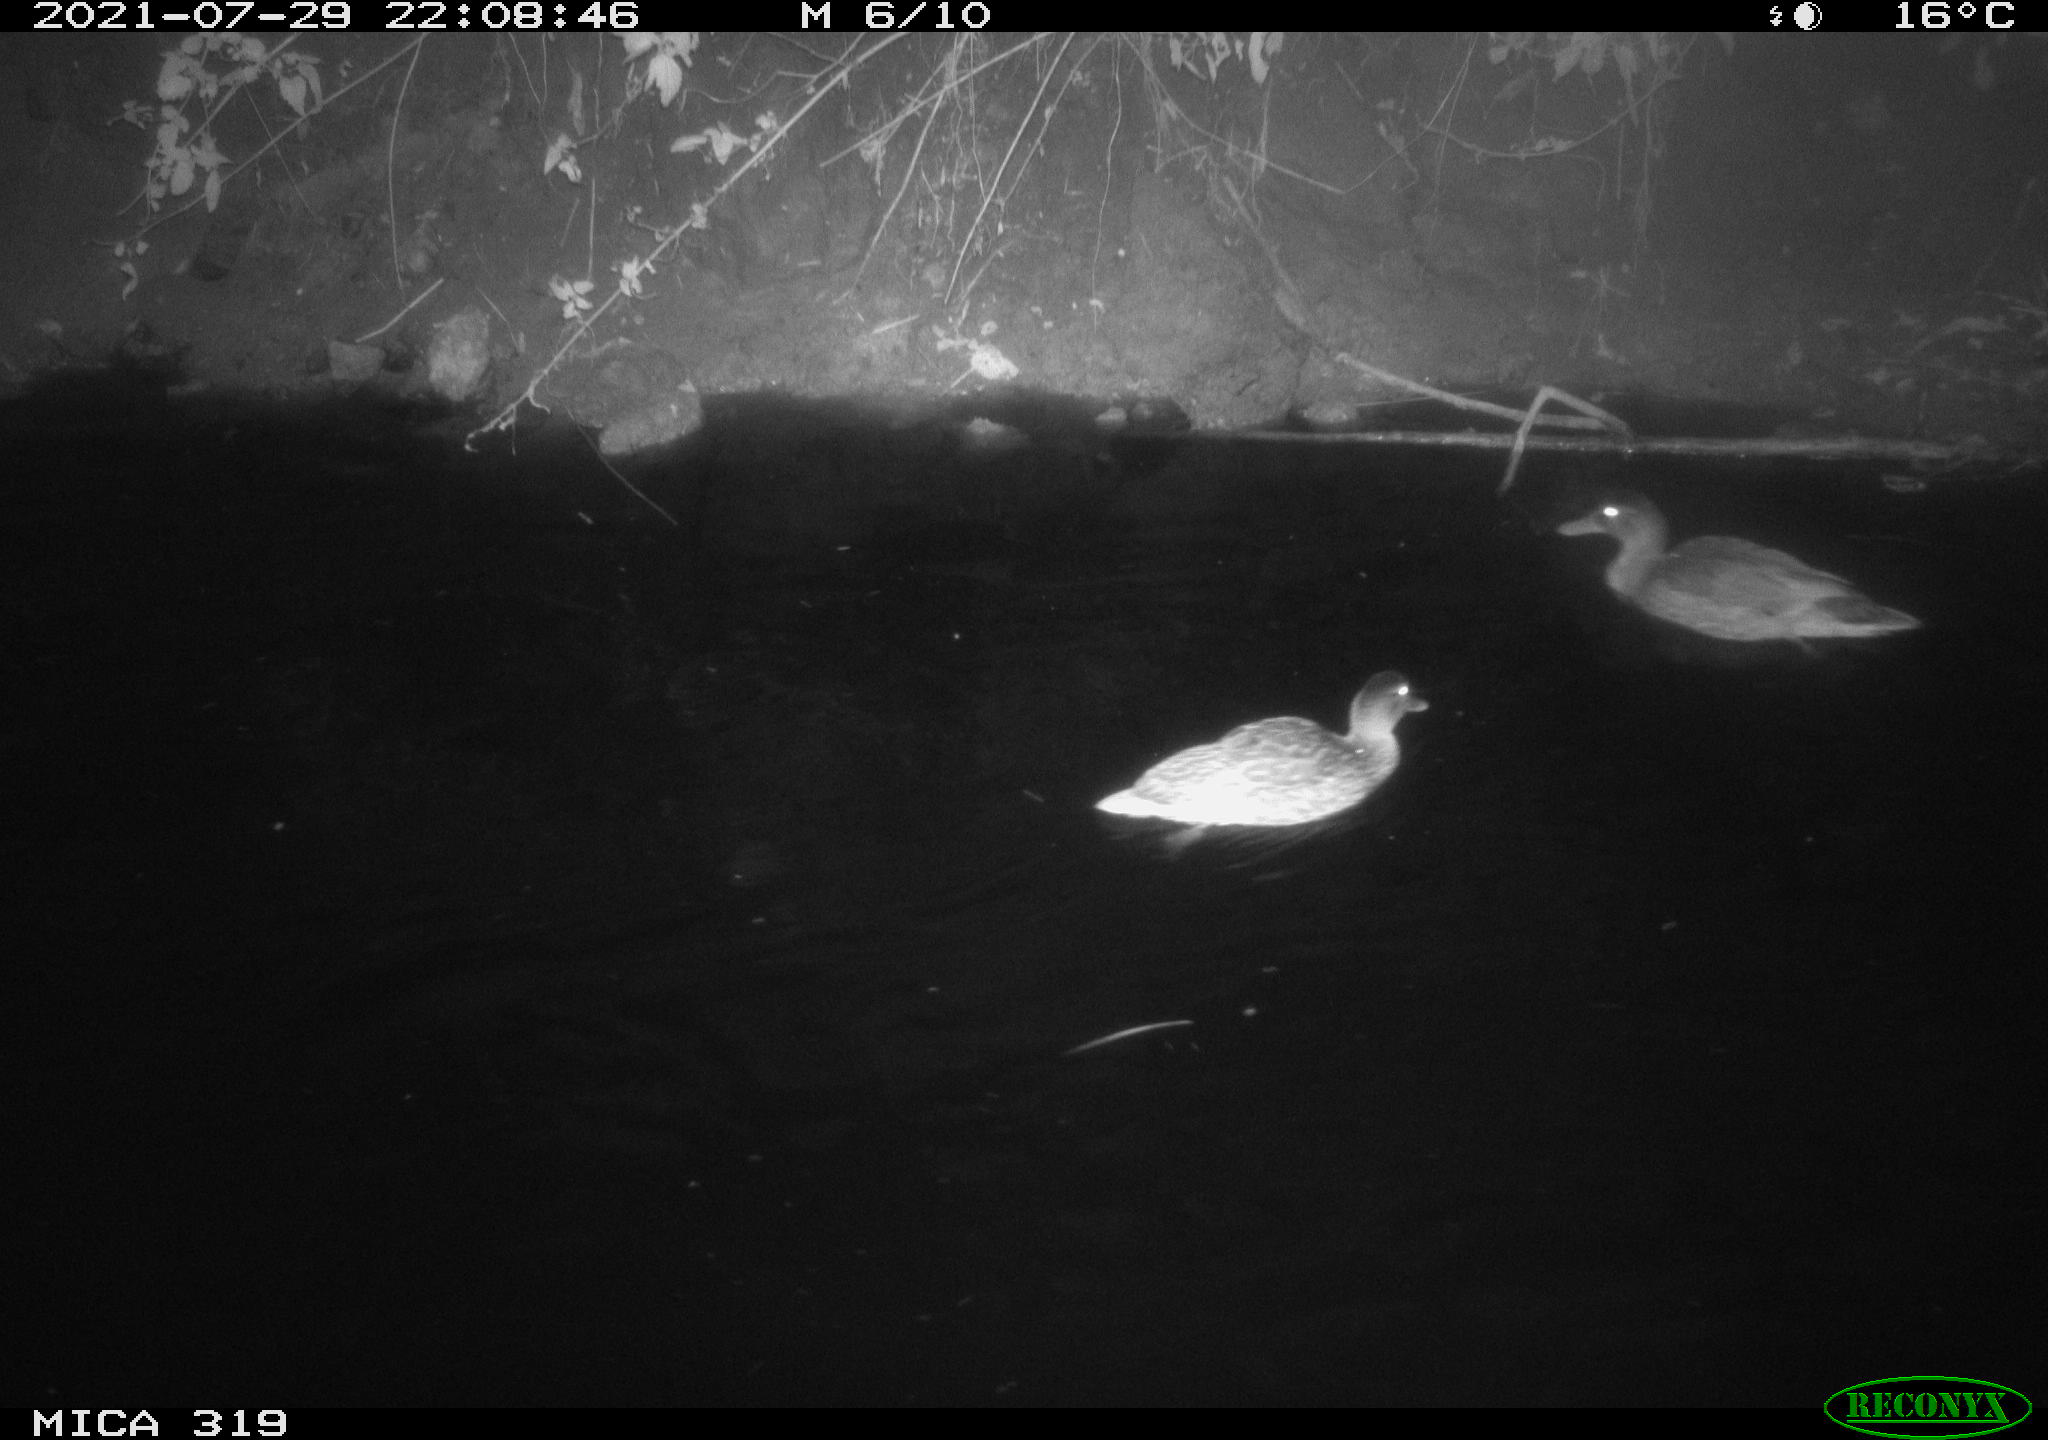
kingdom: Animalia
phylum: Chordata
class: Aves
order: Anseriformes
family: Anatidae
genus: Anas
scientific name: Anas platyrhynchos
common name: Mallard
